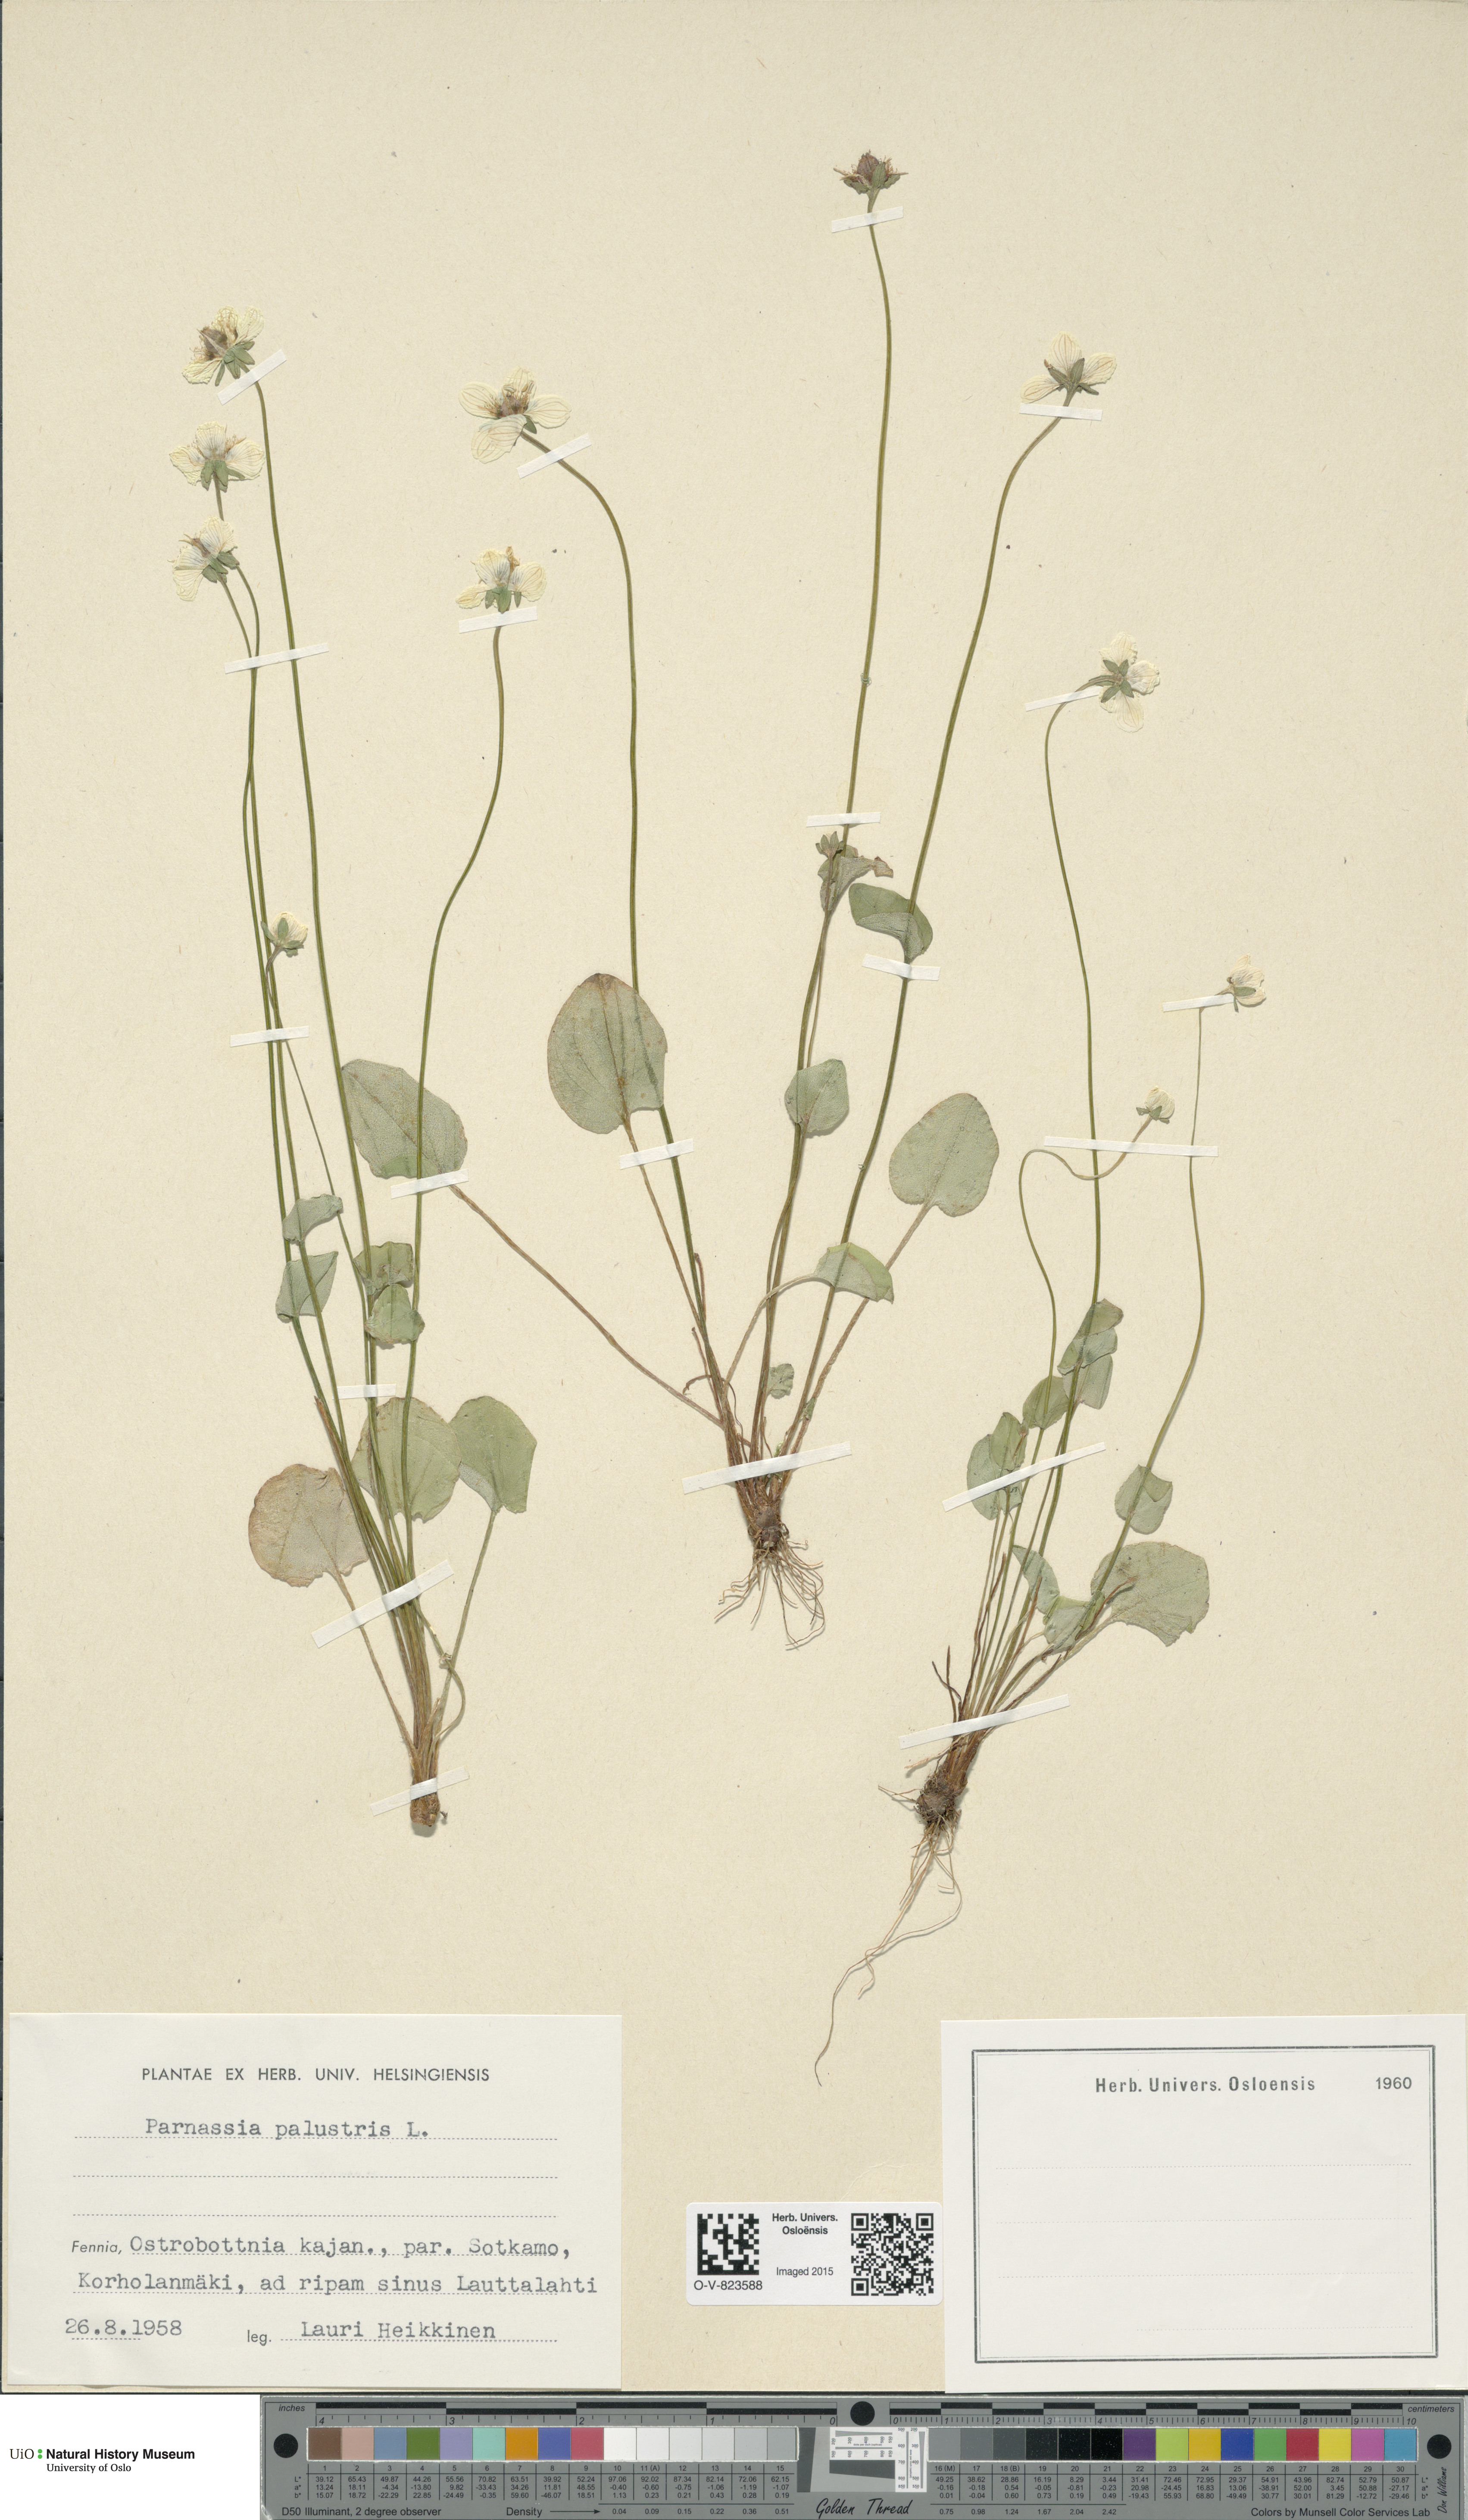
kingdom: Plantae
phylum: Tracheophyta
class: Magnoliopsida
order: Celastrales
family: Parnassiaceae
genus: Parnassia
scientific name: Parnassia palustris
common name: Grass-of-parnassus
